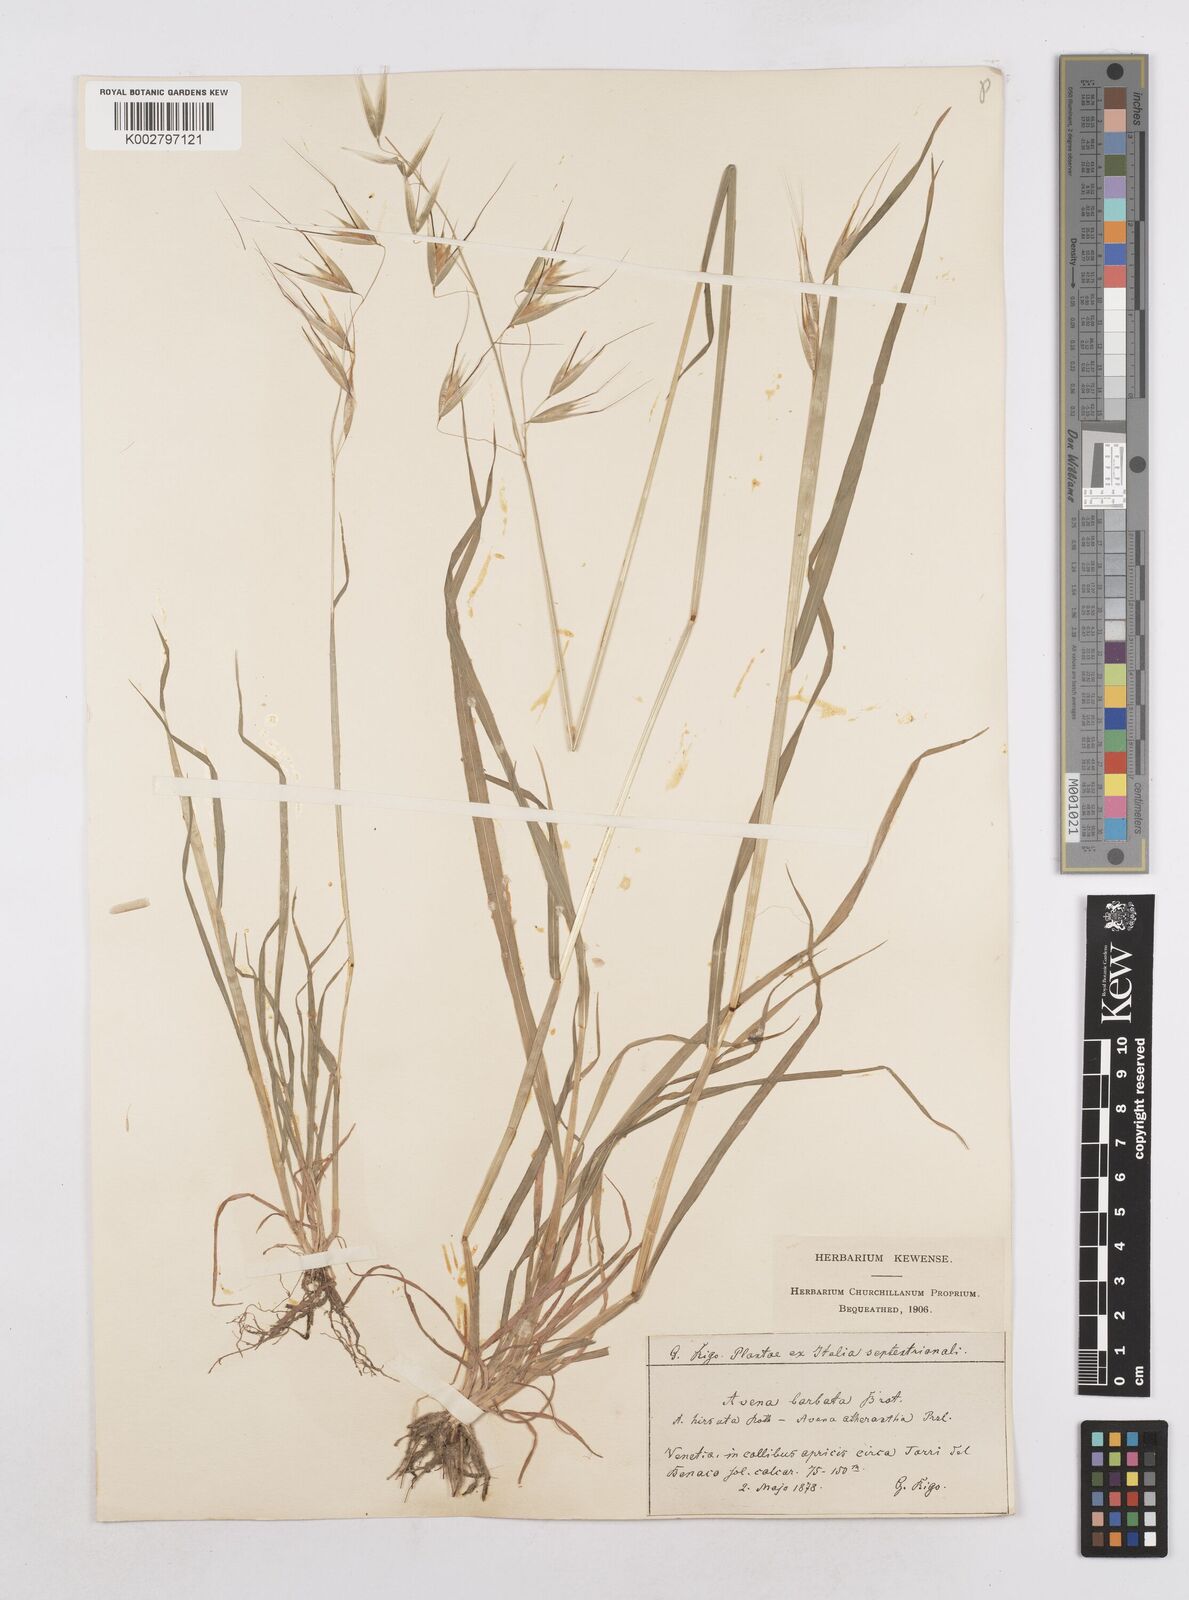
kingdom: Plantae
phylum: Tracheophyta
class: Liliopsida
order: Poales
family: Poaceae
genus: Avena
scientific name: Avena
